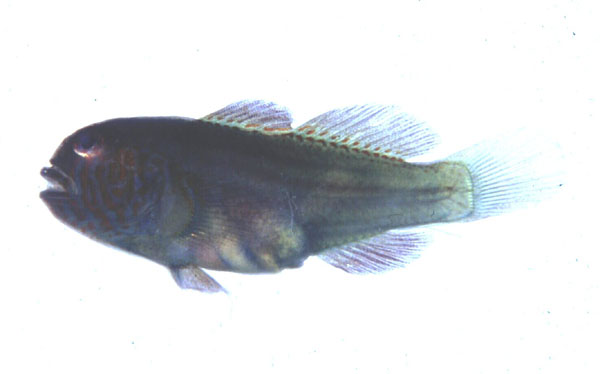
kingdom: Animalia
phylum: Chordata
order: Perciformes
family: Gobiidae
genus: Gobiodon
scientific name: Gobiodon histrio
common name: Actor coral goby
